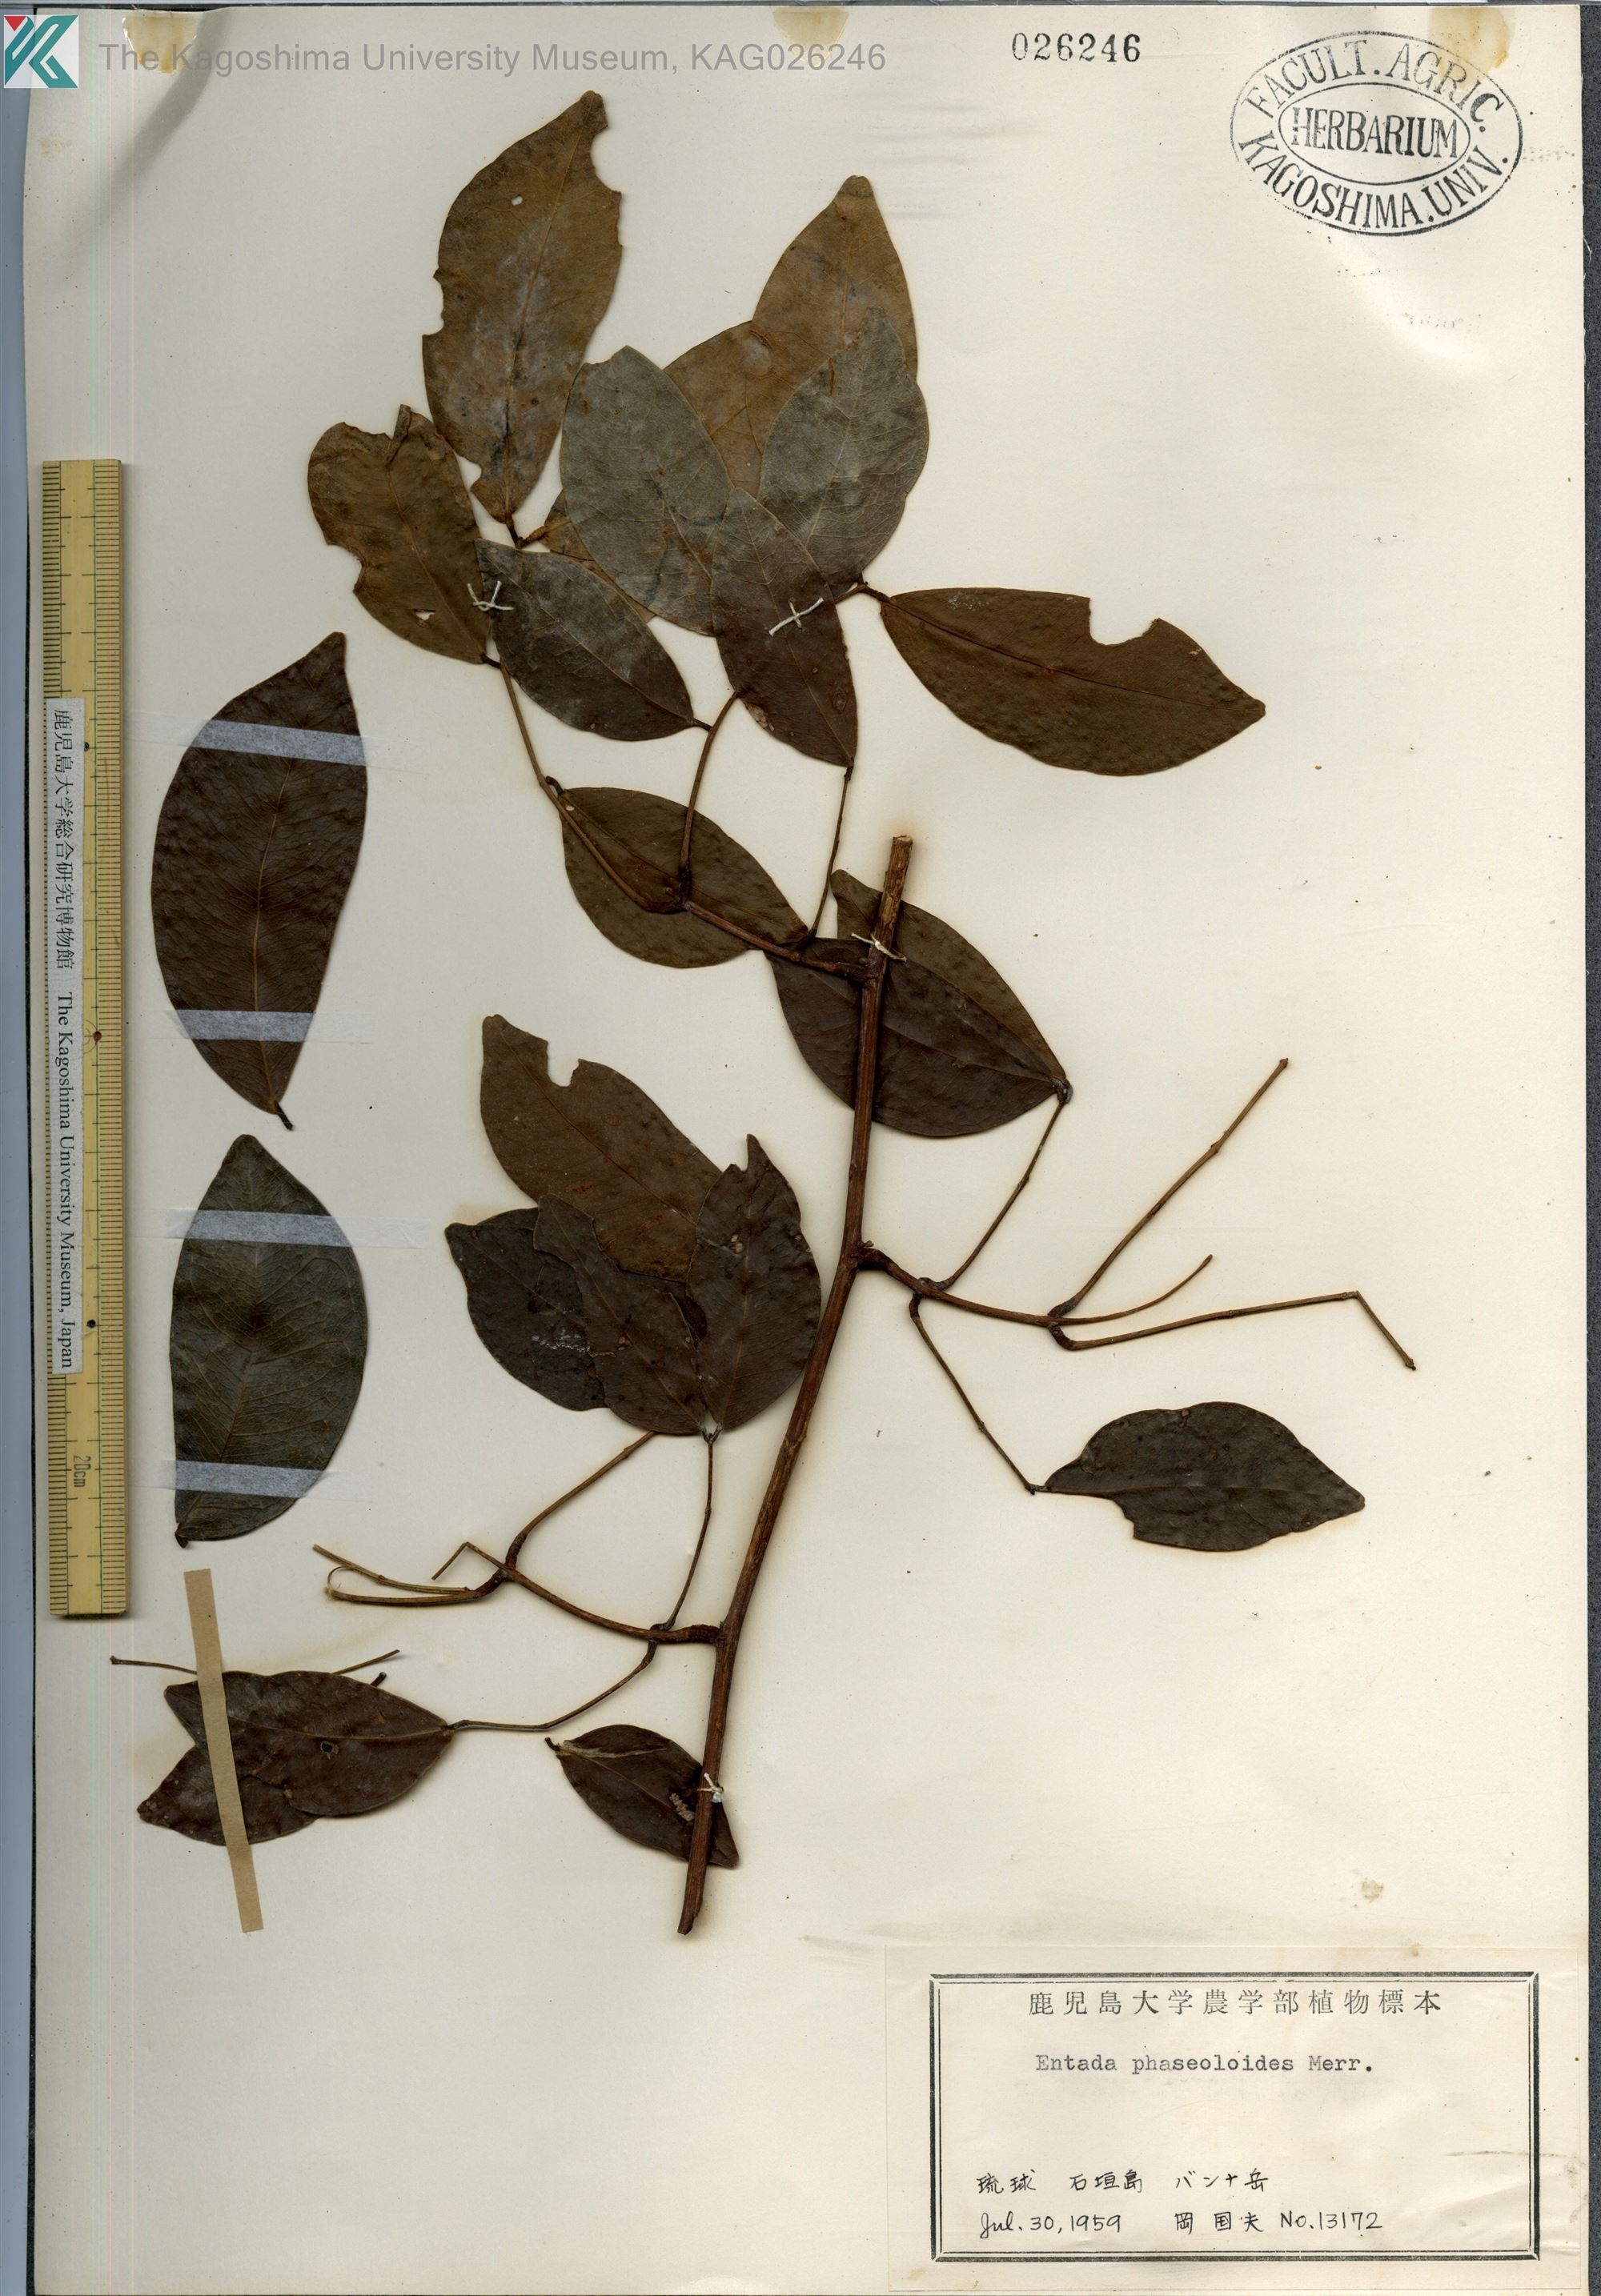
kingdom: Plantae
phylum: Tracheophyta
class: Magnoliopsida
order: Fabales
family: Fabaceae
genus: Entada
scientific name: Entada tonkinensis
